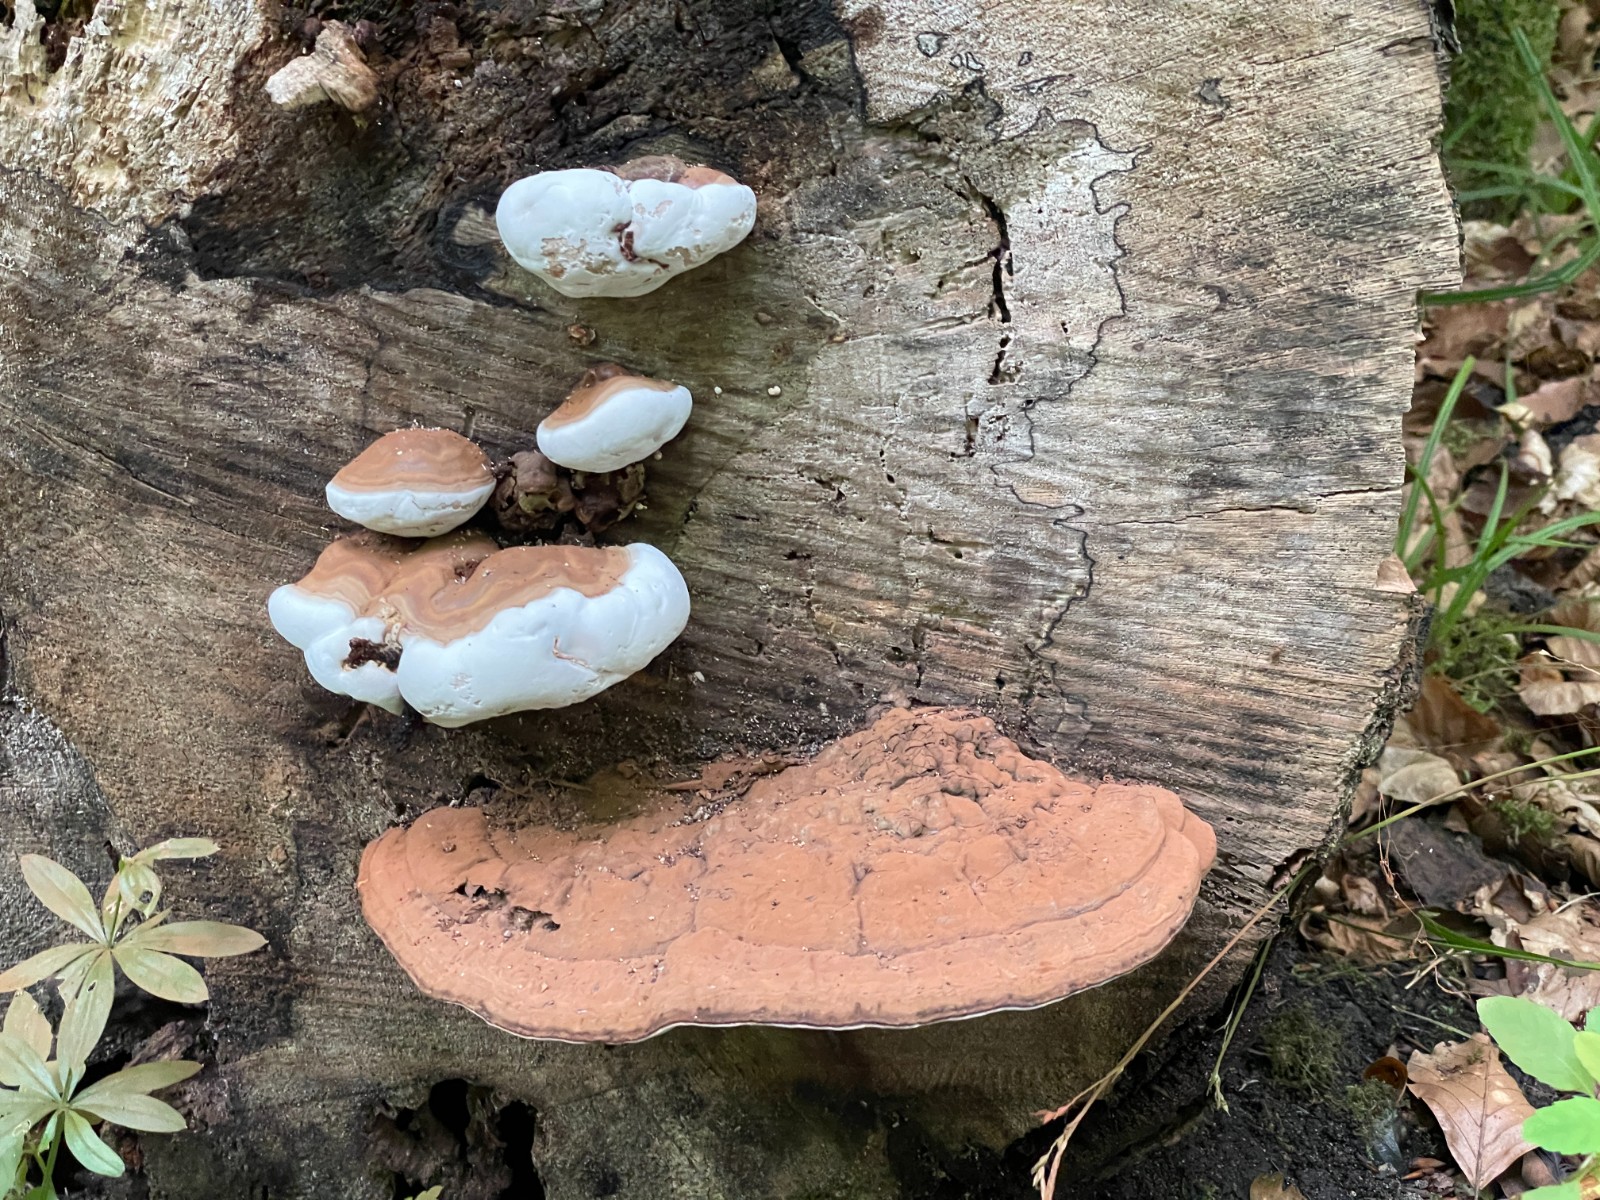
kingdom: Fungi
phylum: Basidiomycota
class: Agaricomycetes
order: Polyporales
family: Polyporaceae
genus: Ganoderma
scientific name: Ganoderma applanatum
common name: flad lakporesvamp
